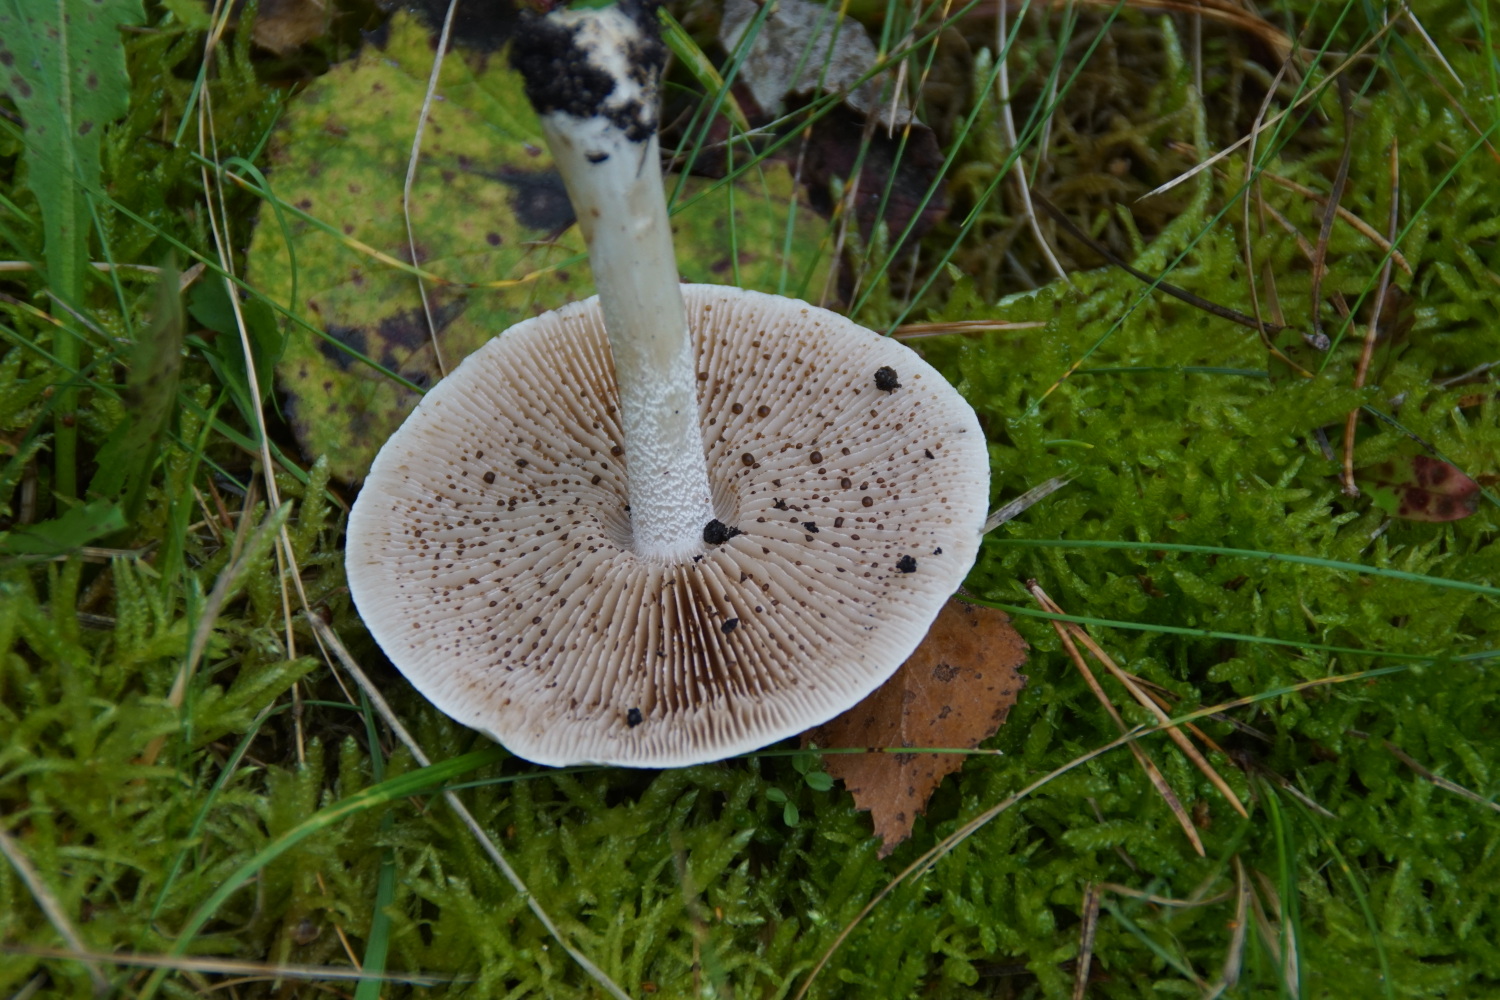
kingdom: Fungi
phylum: Basidiomycota
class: Agaricomycetes
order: Agaricales
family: Hymenogastraceae
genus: Hebeloma
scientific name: Hebeloma
